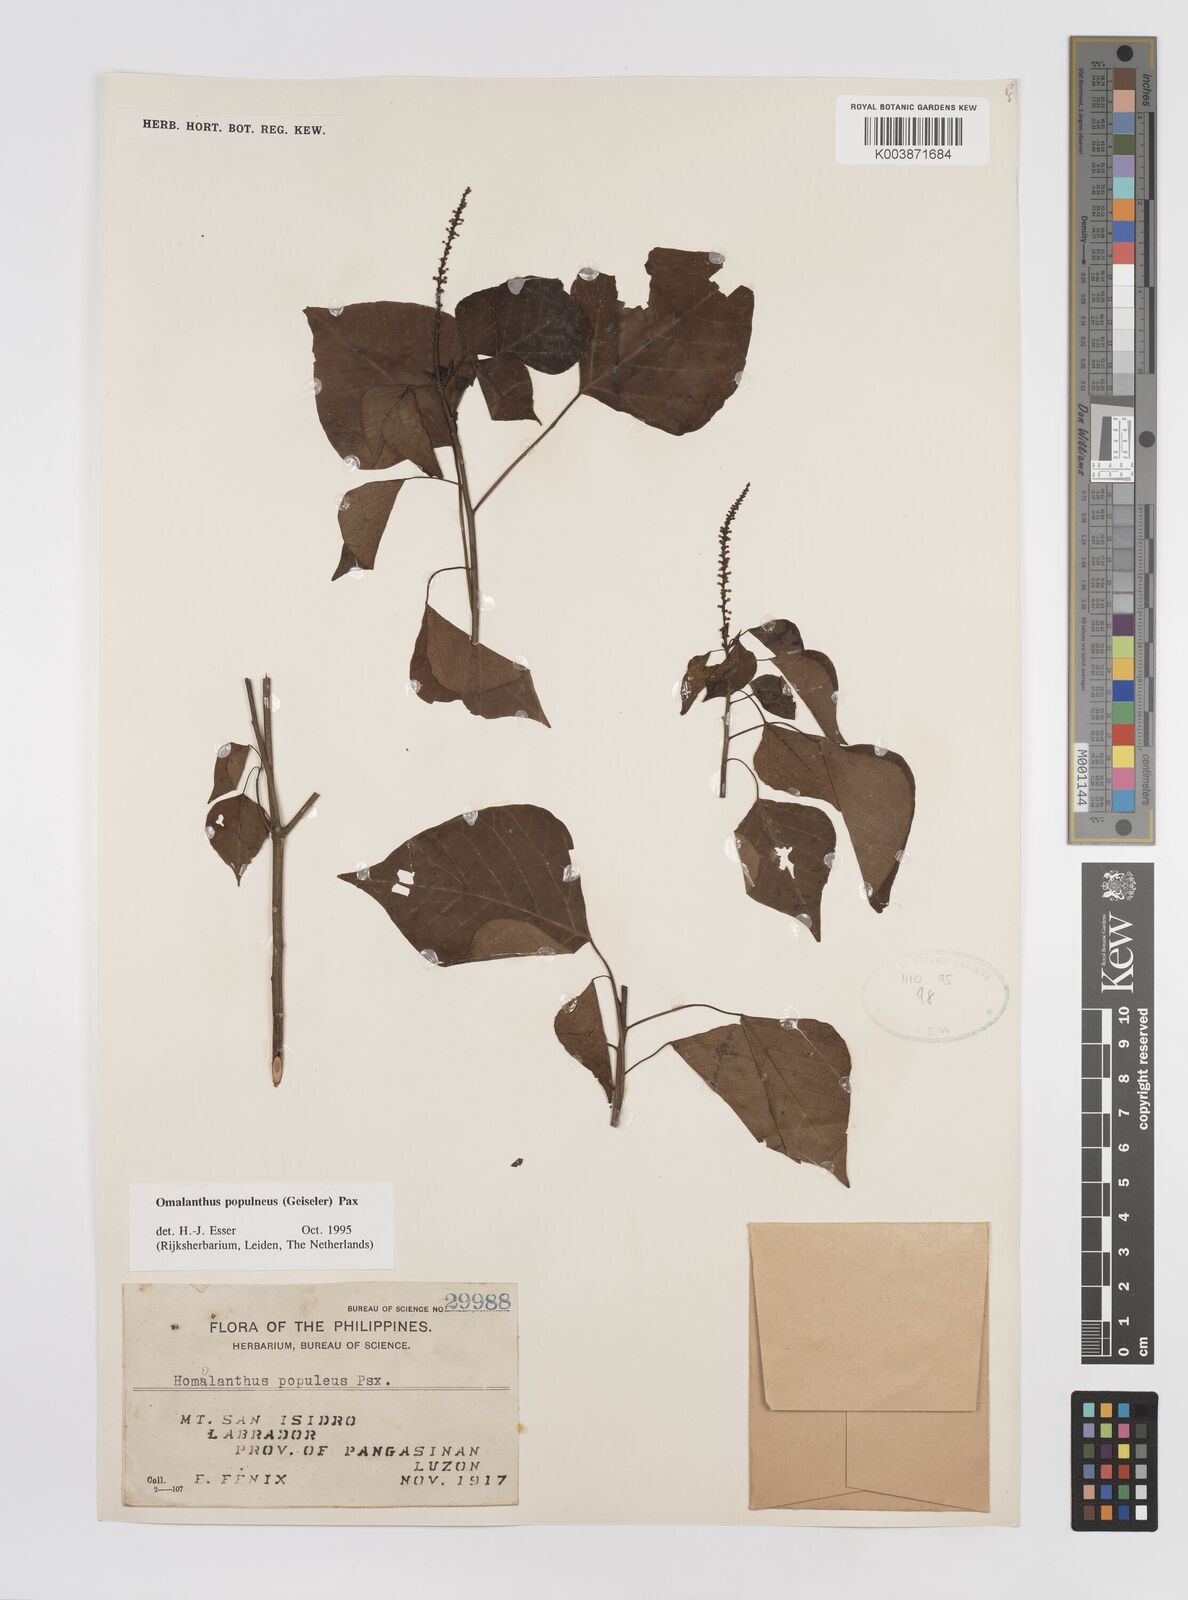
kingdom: Plantae
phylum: Tracheophyta
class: Magnoliopsida
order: Malpighiales
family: Euphorbiaceae
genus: Homalanthus
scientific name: Homalanthus populneus
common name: Spurge
